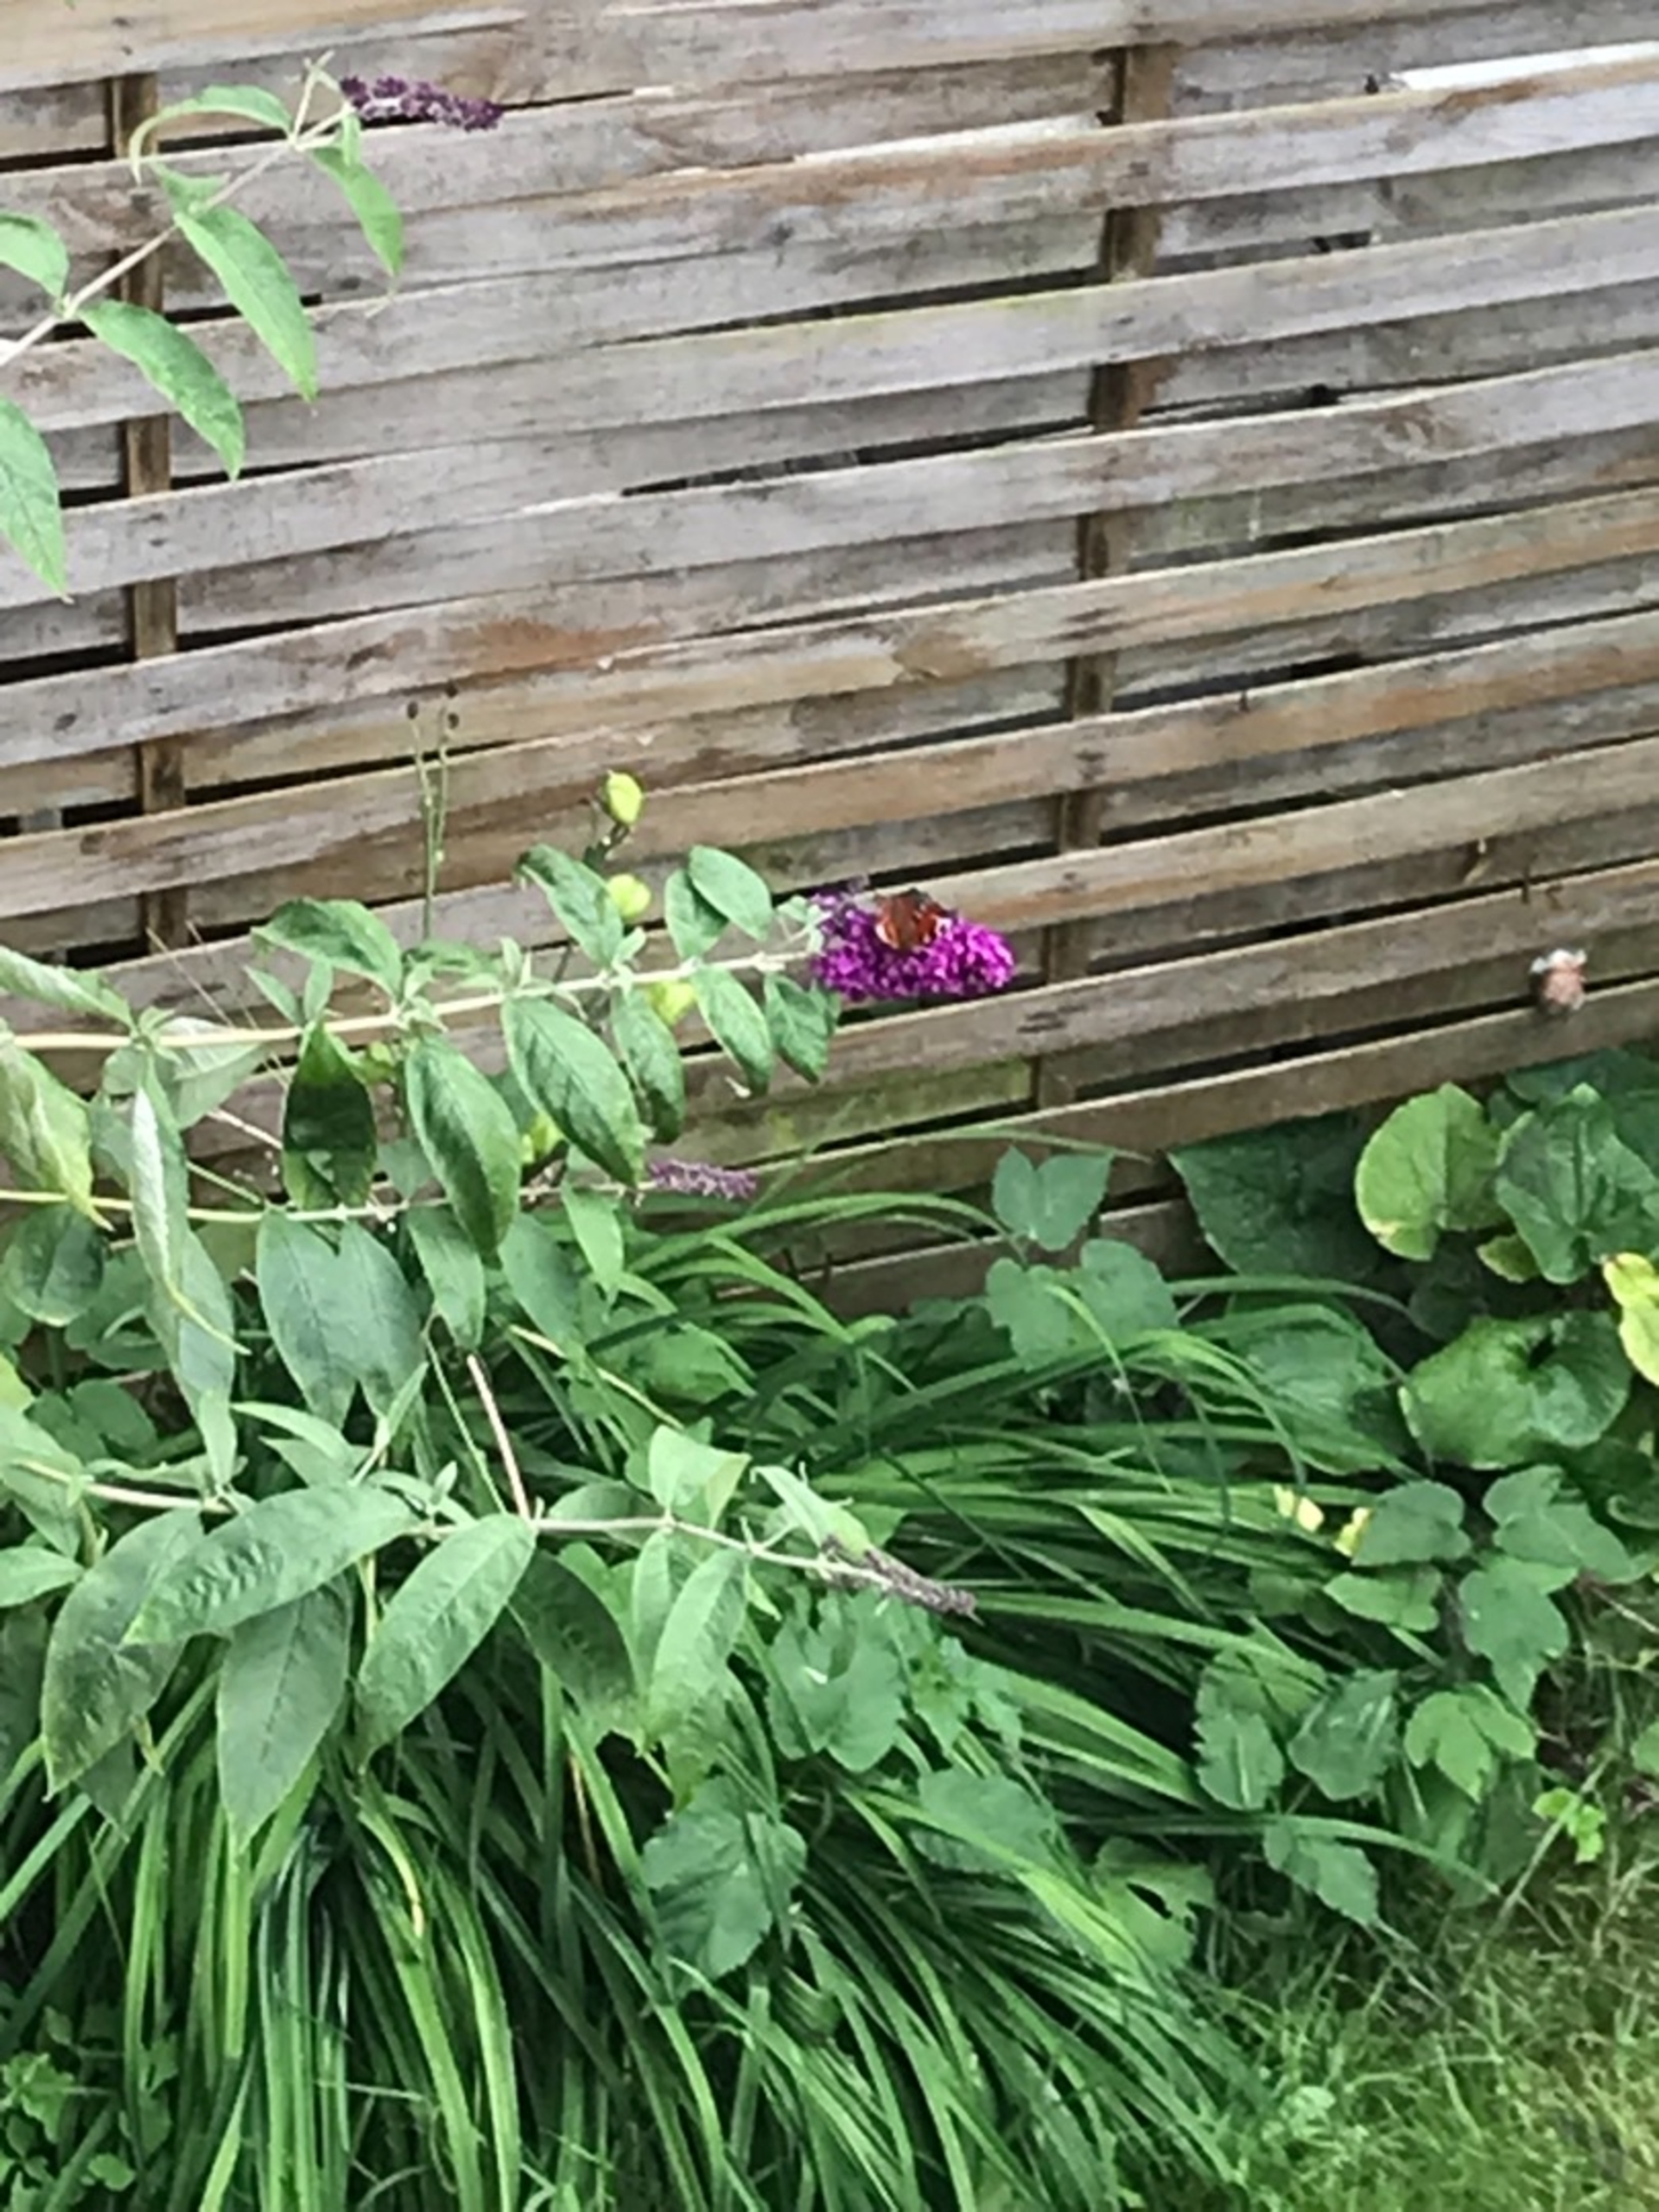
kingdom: Animalia
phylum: Arthropoda
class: Insecta
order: Lepidoptera
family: Nymphalidae
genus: Aglais
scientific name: Aglais io
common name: Dagpåfugleøje
